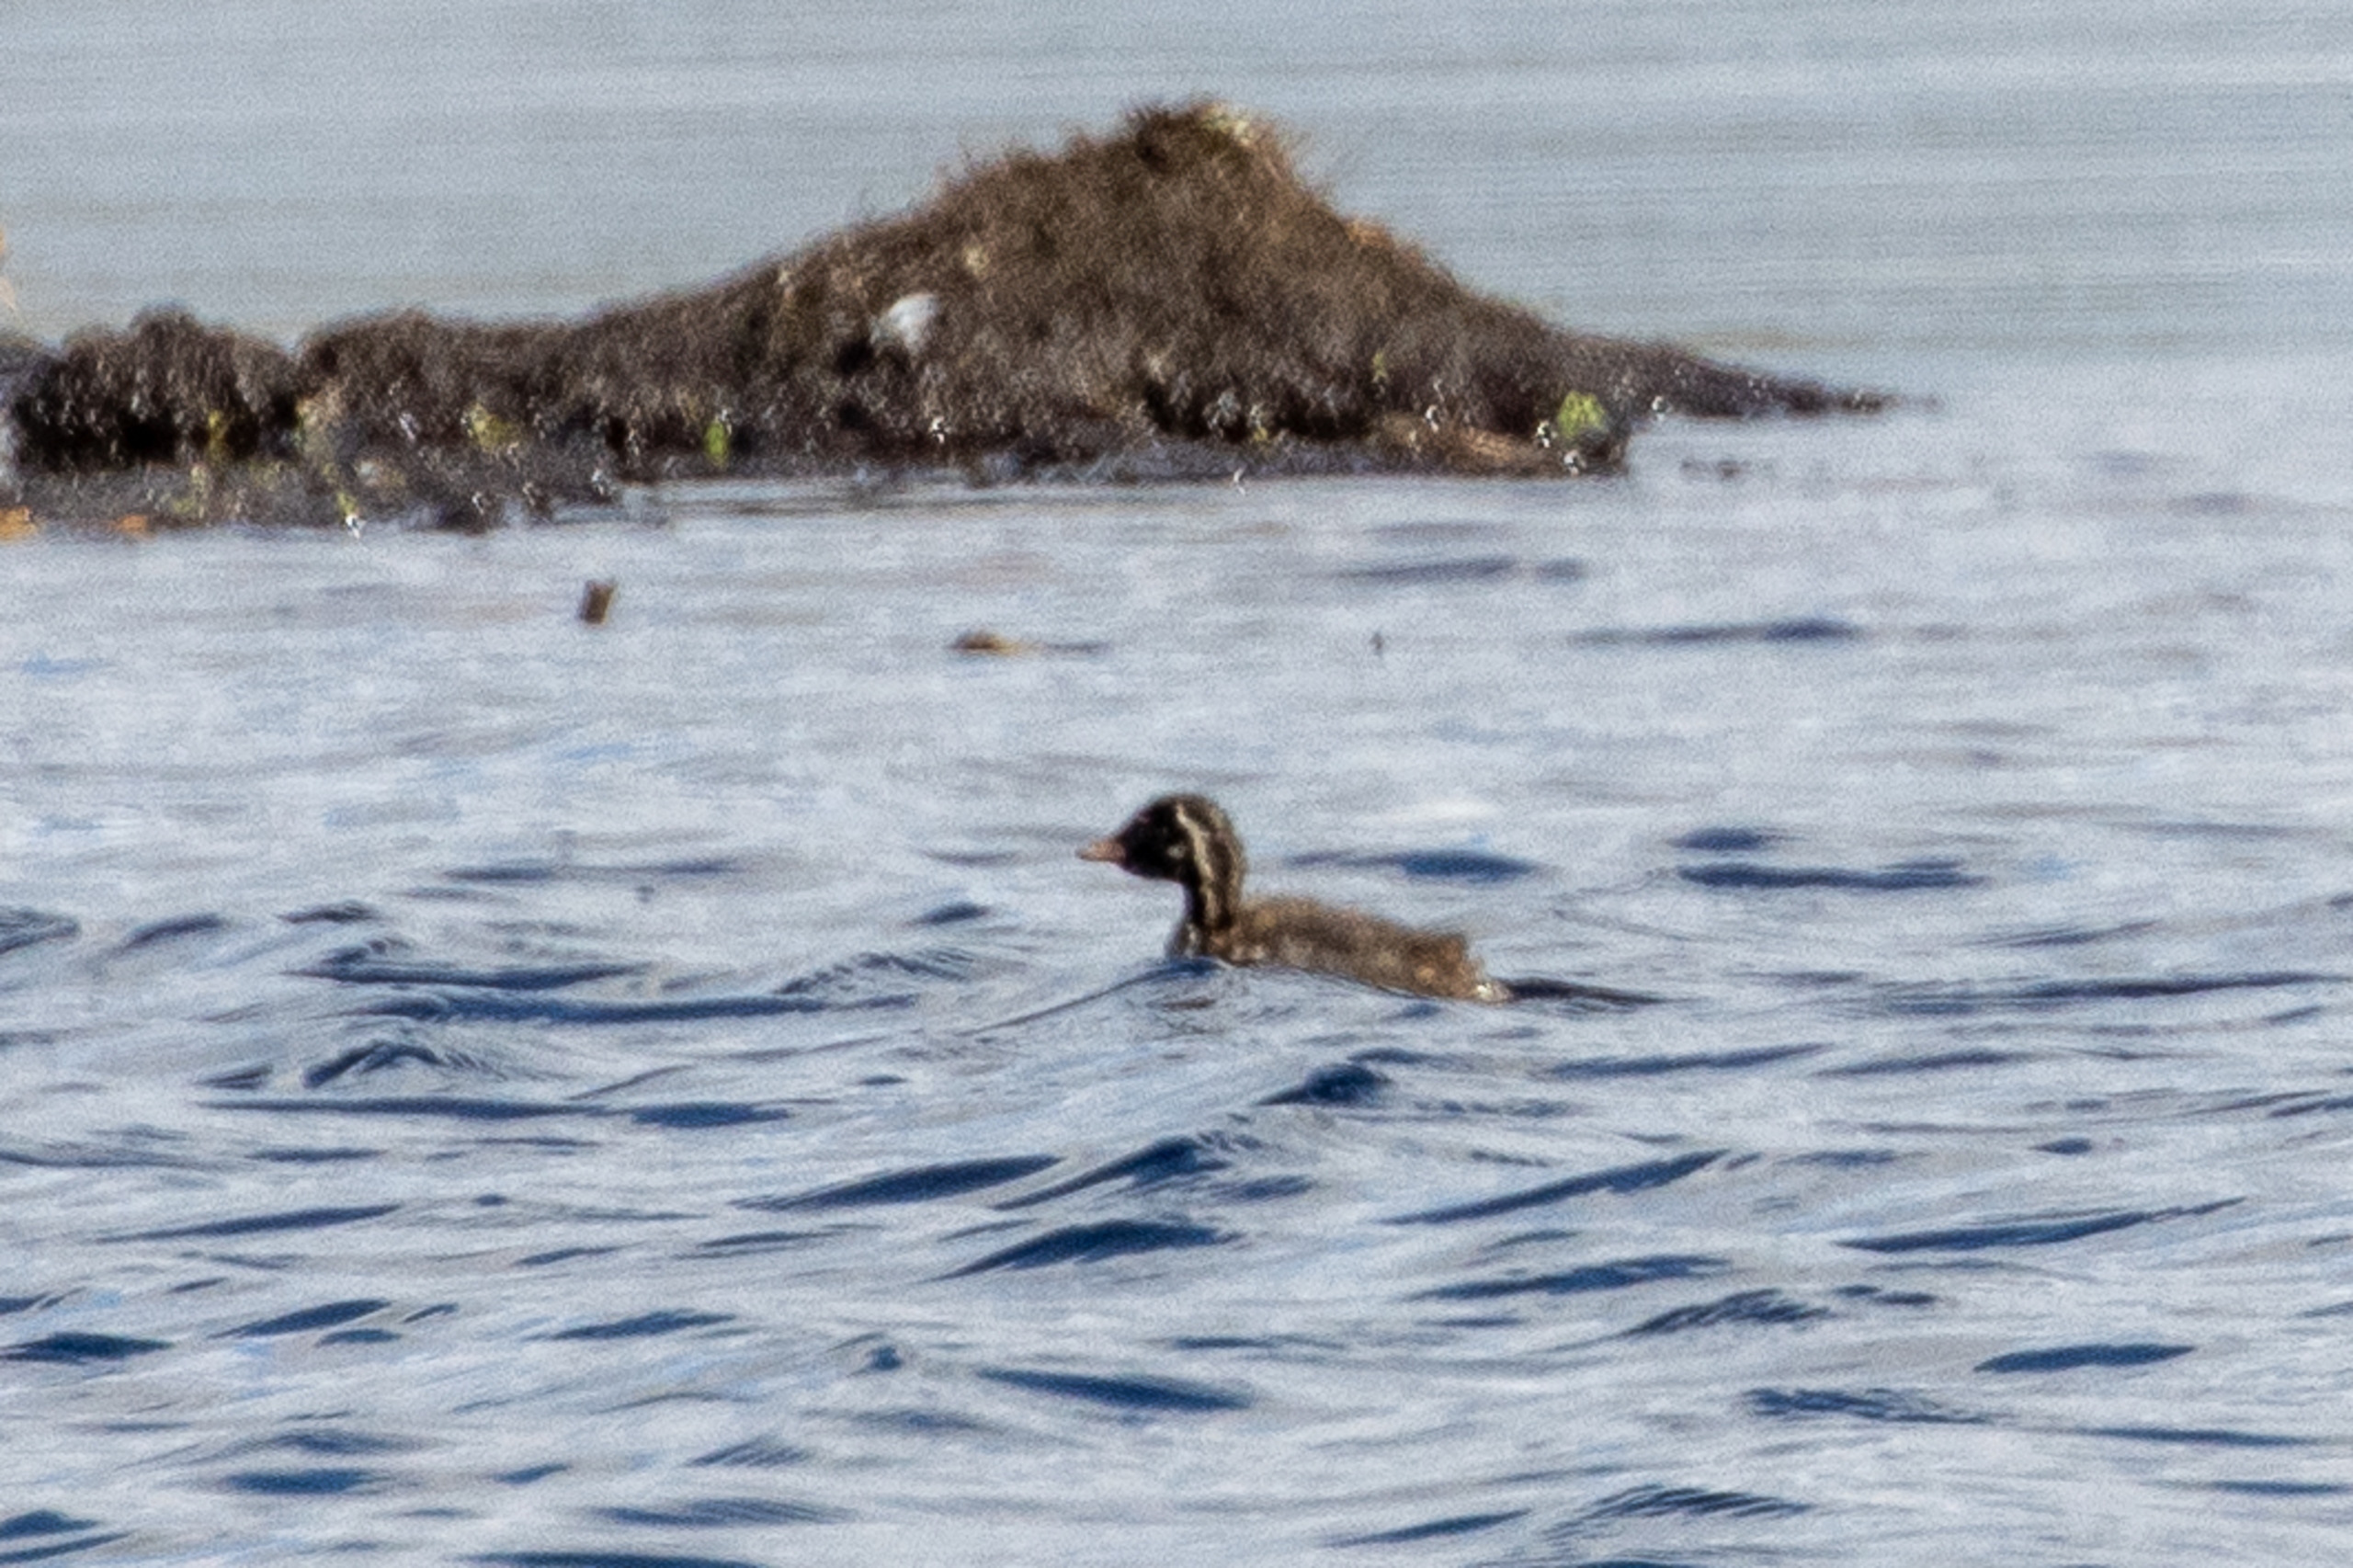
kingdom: Animalia
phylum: Chordata
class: Aves
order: Podicipediformes
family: Podicipedidae
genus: Tachybaptus
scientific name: Tachybaptus ruficollis
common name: Lille lappedykker
